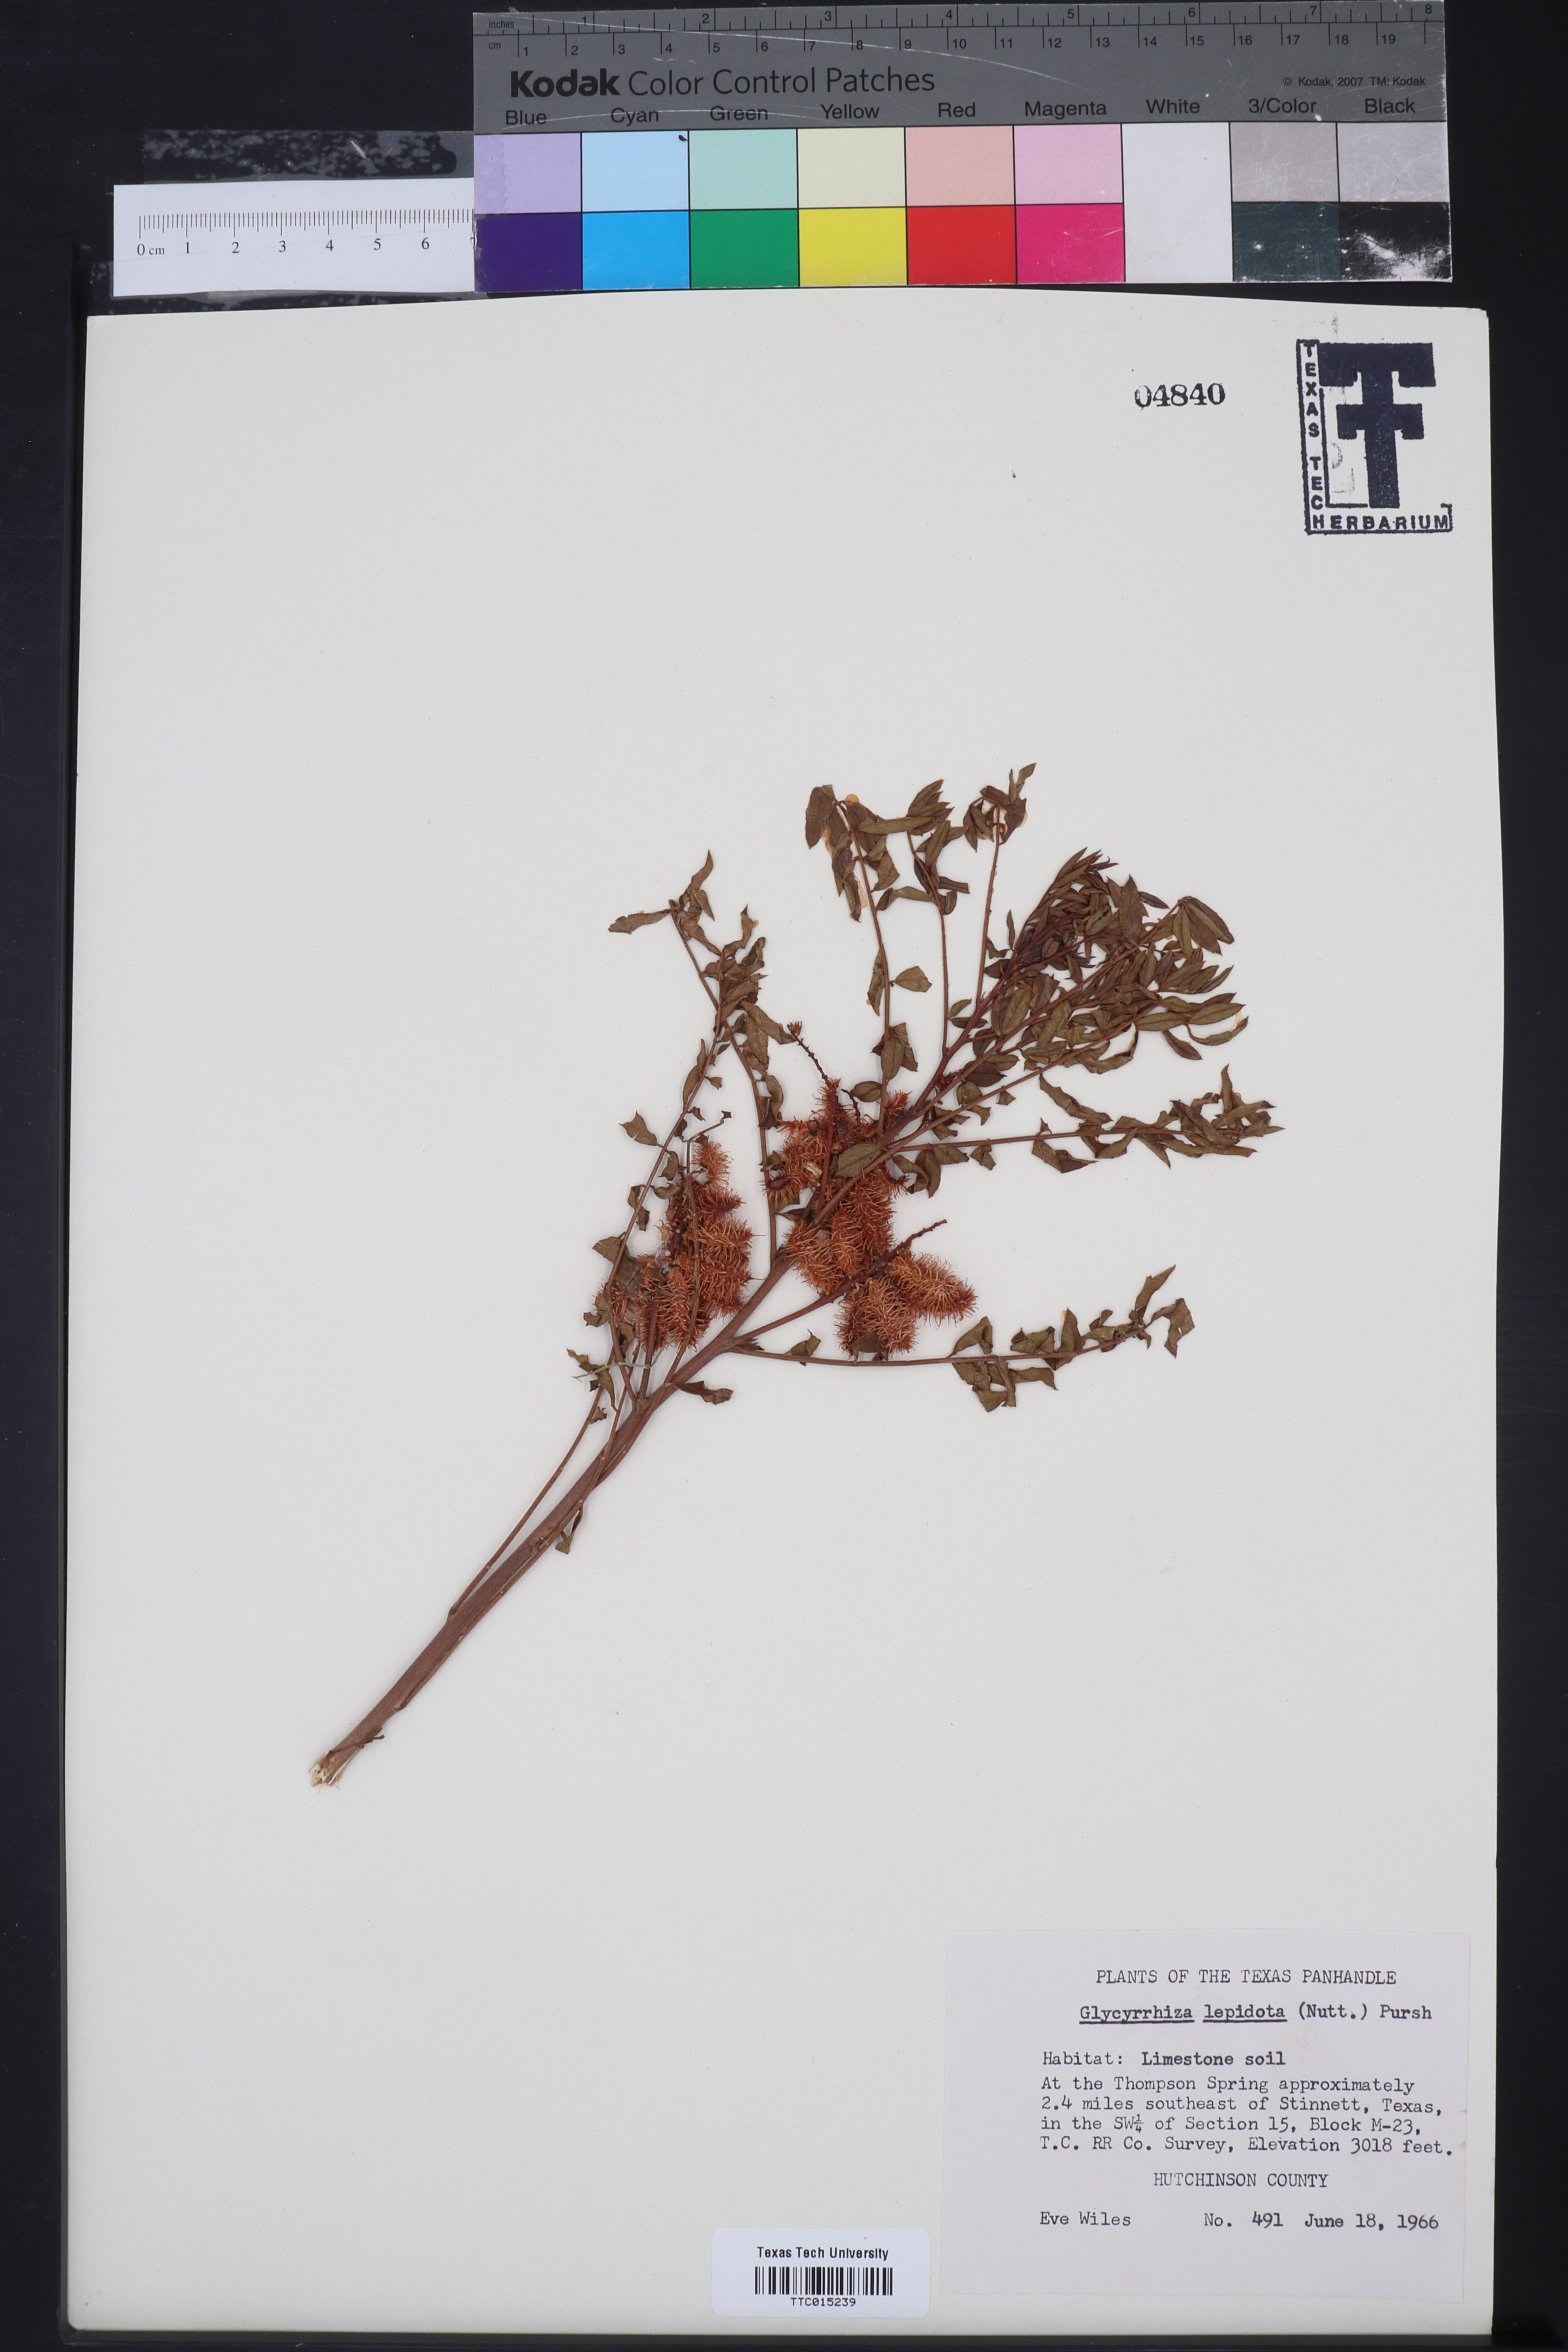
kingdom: Plantae
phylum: Tracheophyta
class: Magnoliopsida
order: Fabales
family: Fabaceae
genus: Glycyrrhiza
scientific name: Glycyrrhiza lepidota
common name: American liquorice
